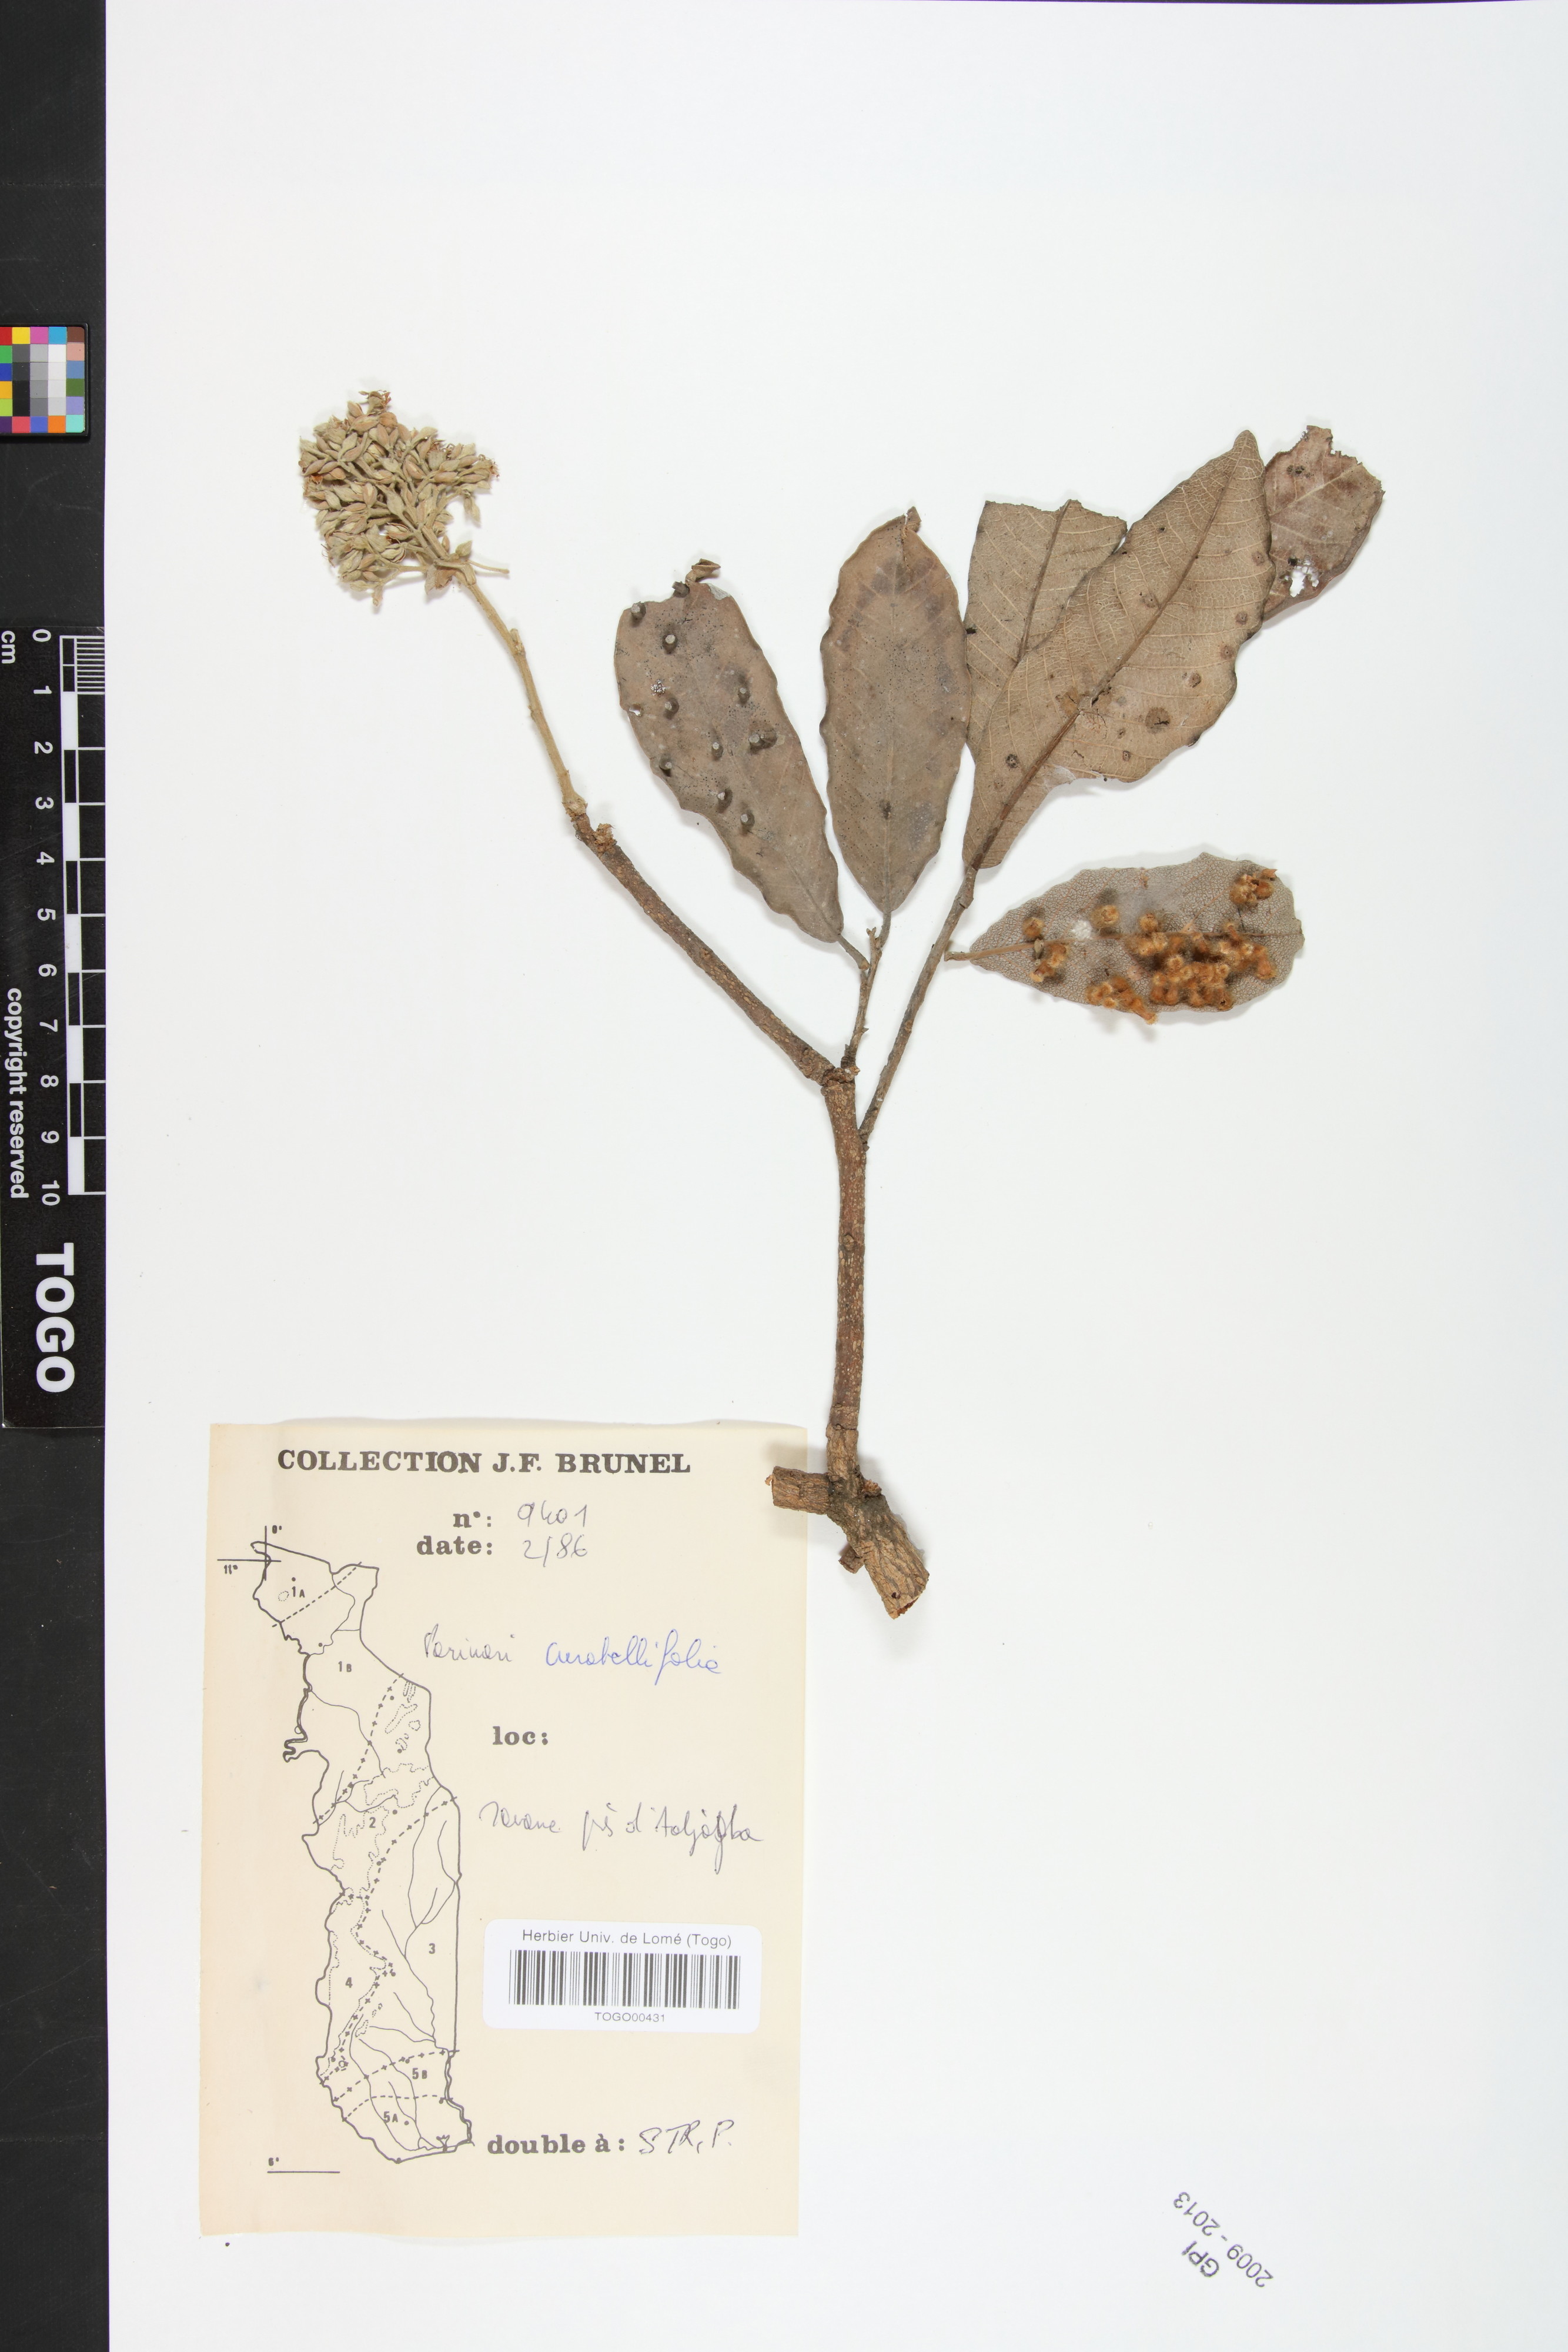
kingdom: Plantae
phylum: Tracheophyta
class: Magnoliopsida
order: Malpighiales
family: Chrysobalanaceae
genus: Parinari
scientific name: Parinari curatellifolia
